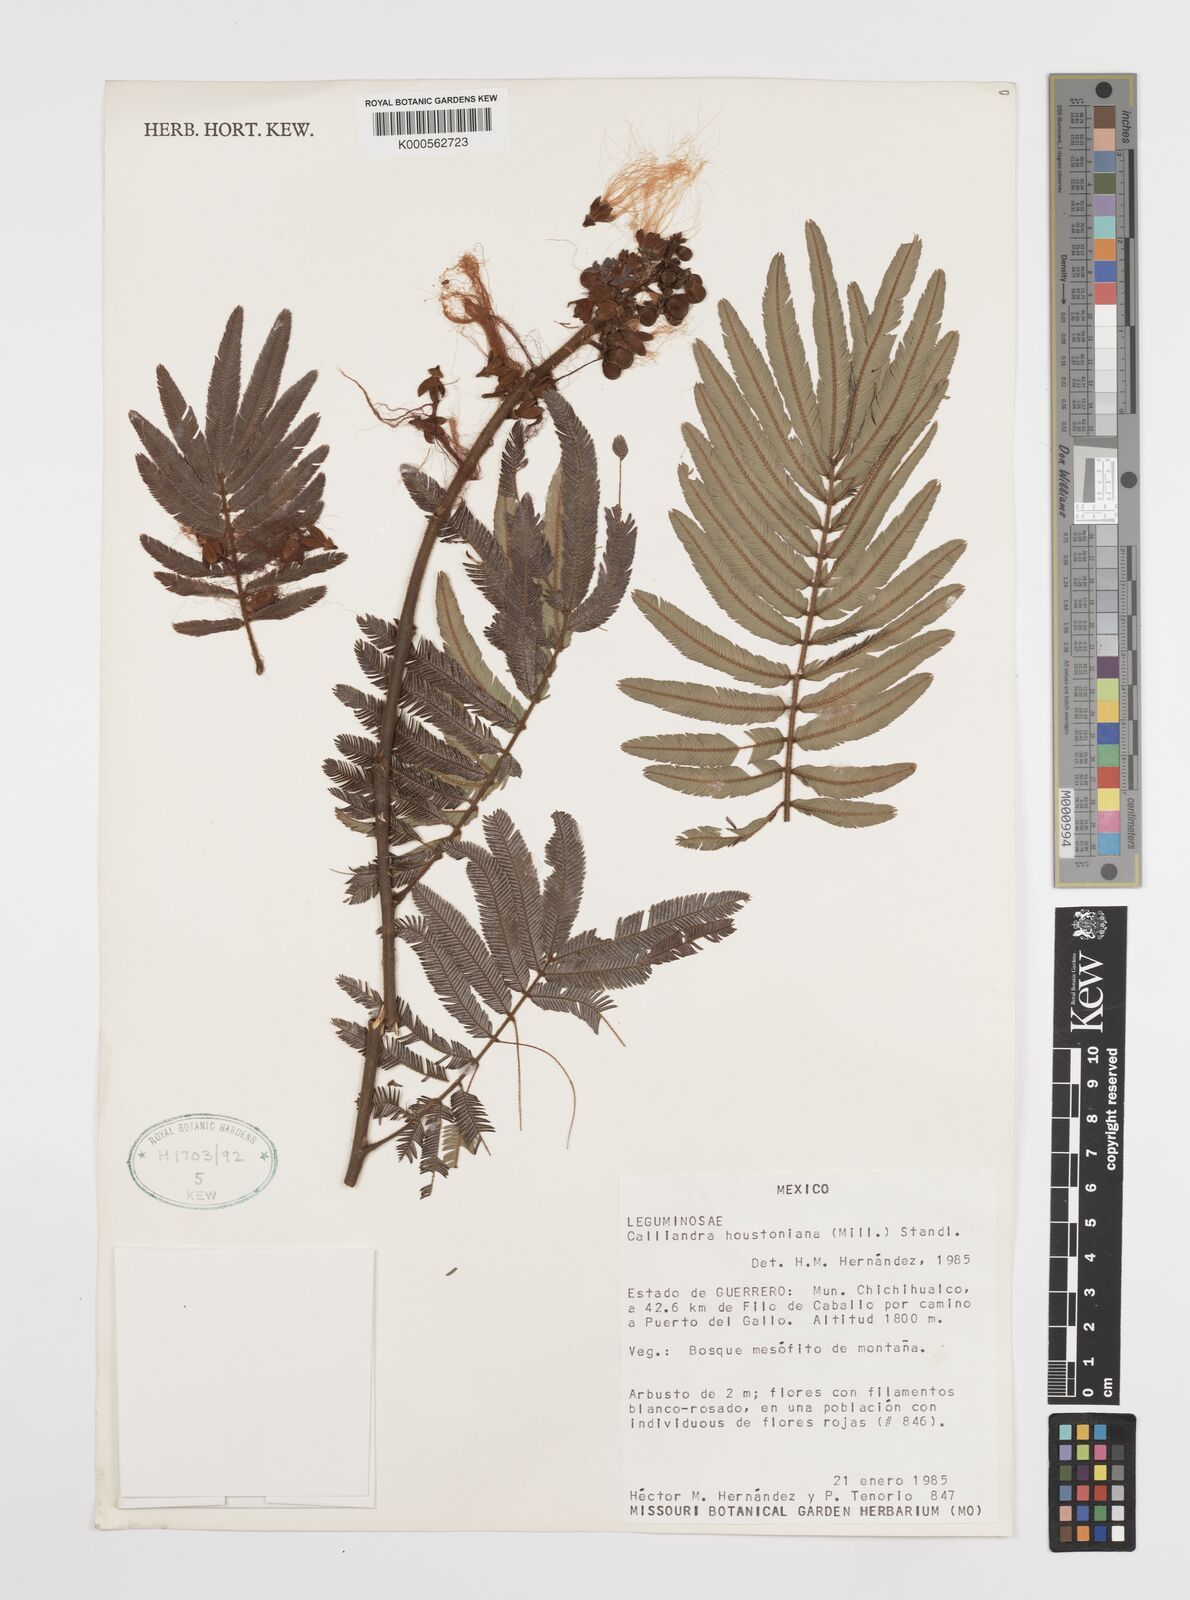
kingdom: Plantae
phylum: Tracheophyta
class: Magnoliopsida
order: Fabales
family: Fabaceae
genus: Calliandra
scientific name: Calliandra houstoniana
